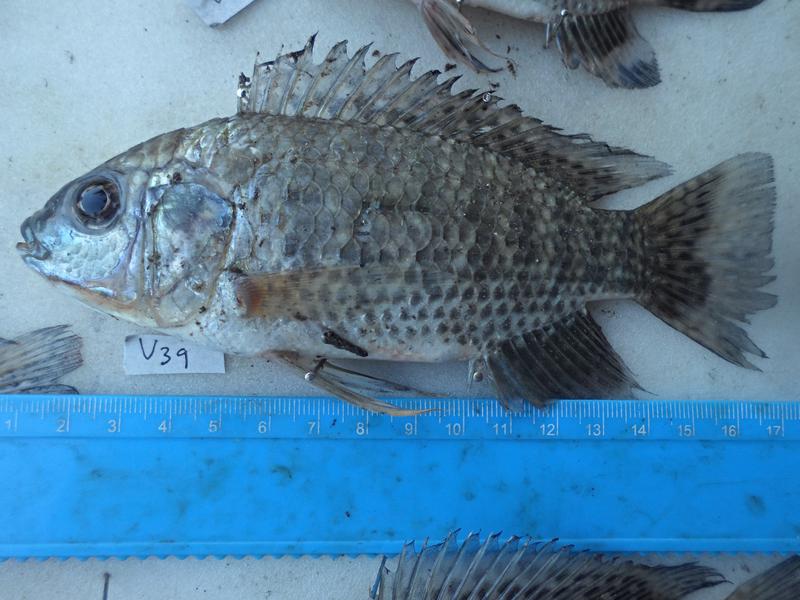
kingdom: Animalia
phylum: Chordata
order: Perciformes
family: Cichlidae
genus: Oreochromis
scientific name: Oreochromis leucostictus
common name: Blue spotted tilapia
